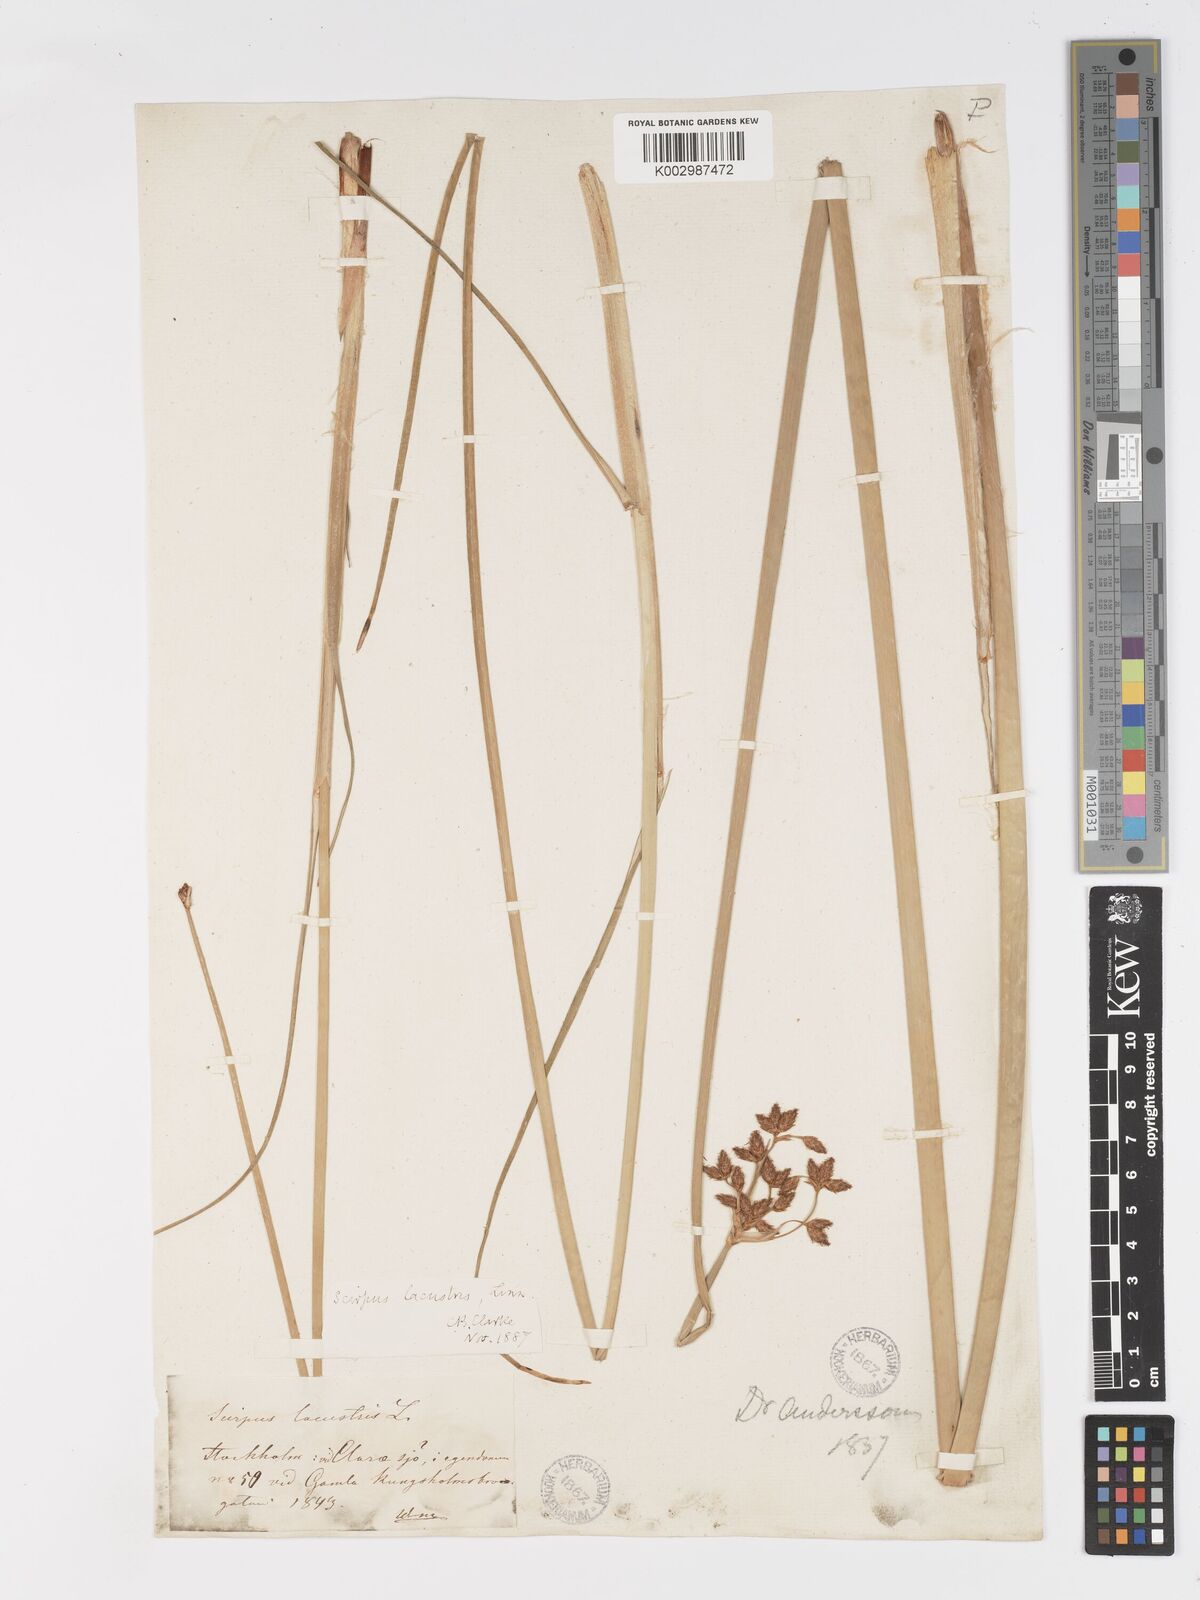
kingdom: Plantae
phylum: Tracheophyta
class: Liliopsida
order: Poales
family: Cyperaceae
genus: Schoenoplectus
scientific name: Schoenoplectus lacustris
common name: Common club-rush
